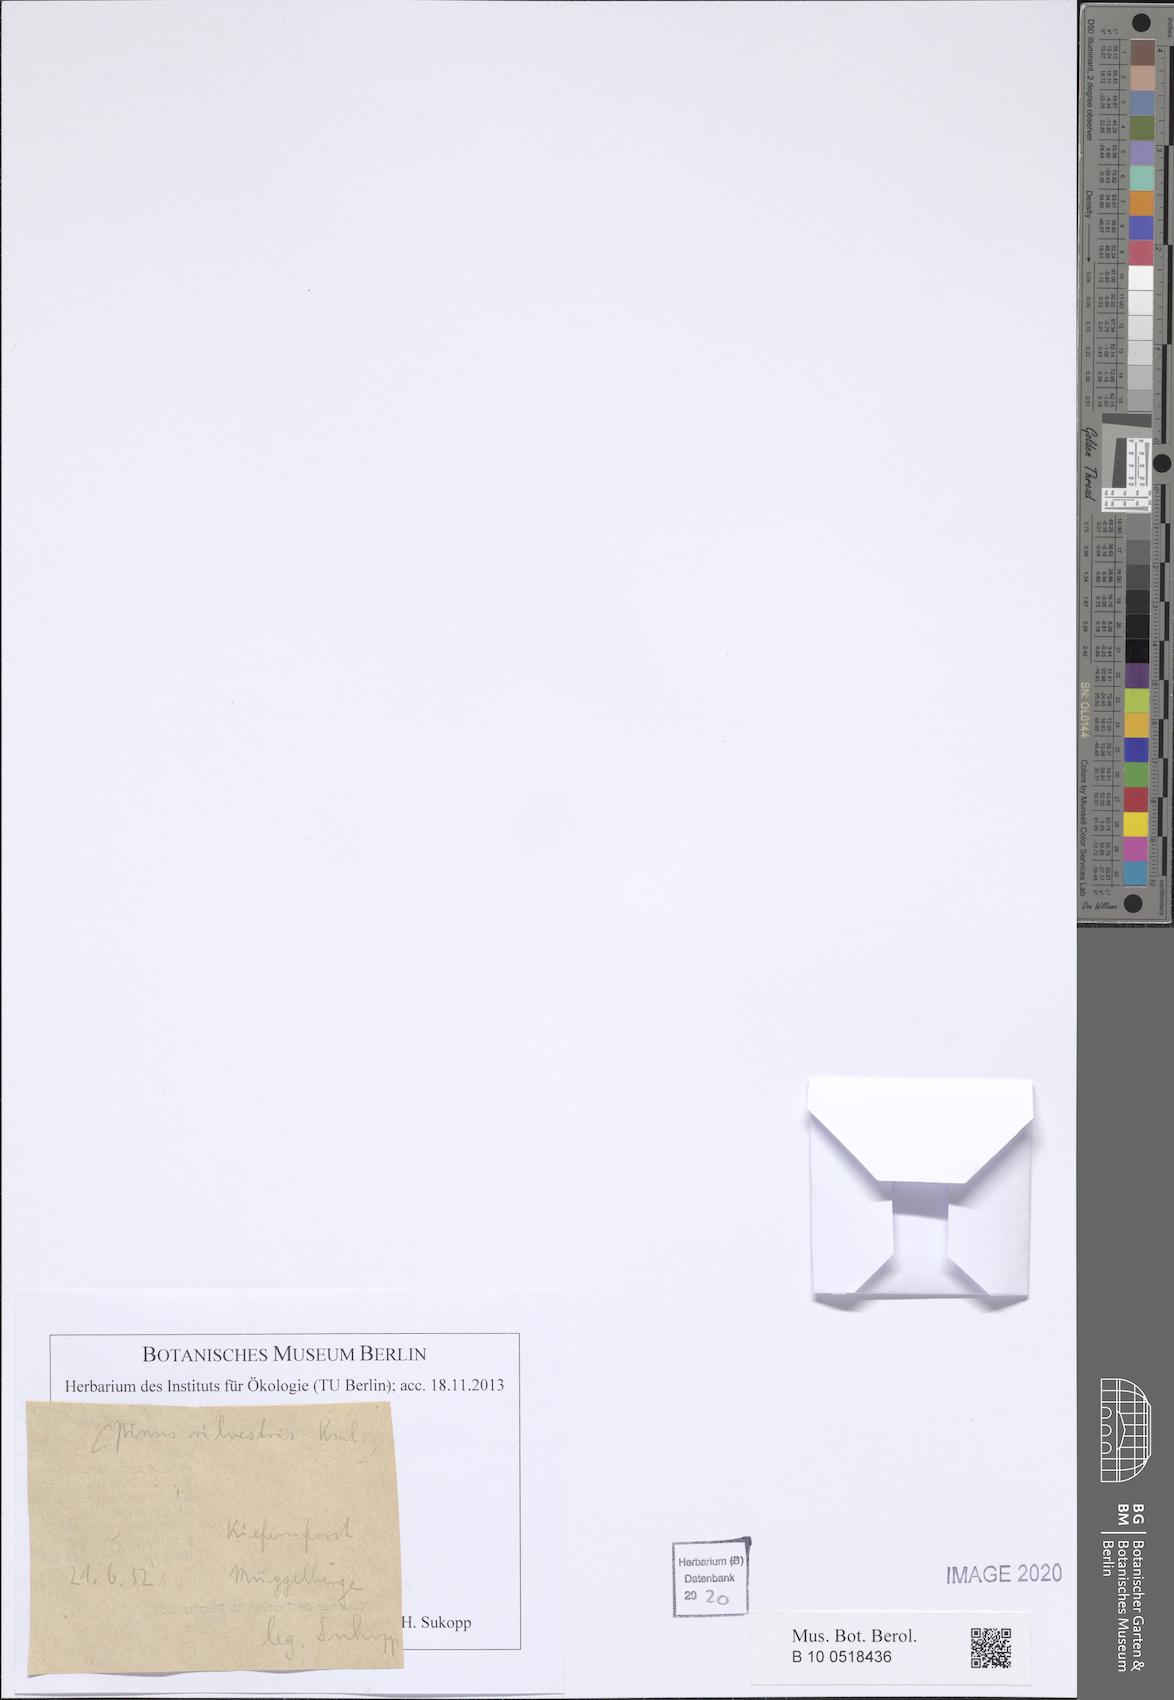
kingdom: Plantae
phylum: Tracheophyta
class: Pinopsida
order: Pinales
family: Pinaceae
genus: Pinus
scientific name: Pinus sylvestris
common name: Scots pine
